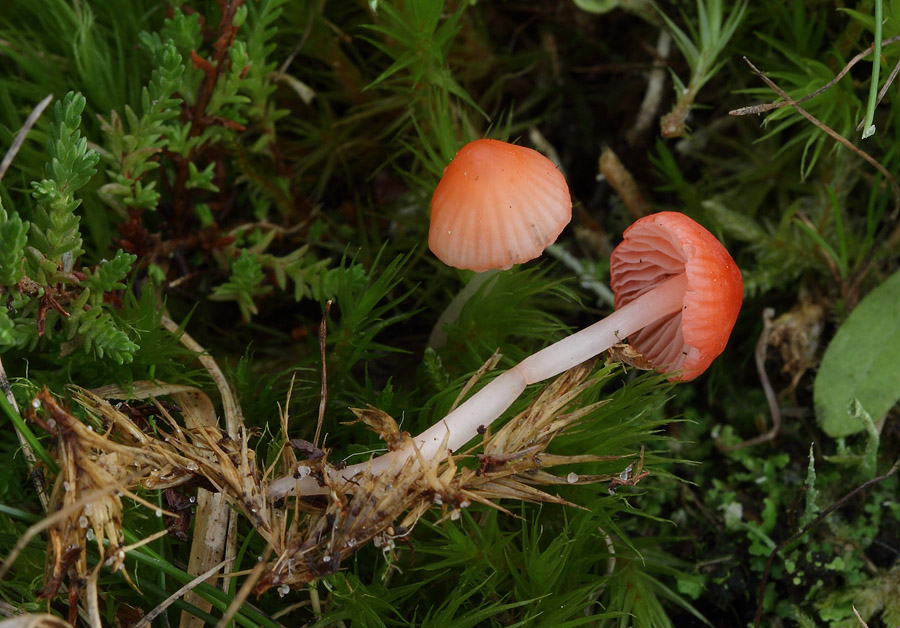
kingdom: Fungi
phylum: Basidiomycota
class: Agaricomycetes
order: Agaricales
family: Mycenaceae
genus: Atheniella
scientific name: Atheniella adonis
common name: rønnerød huesvamp
